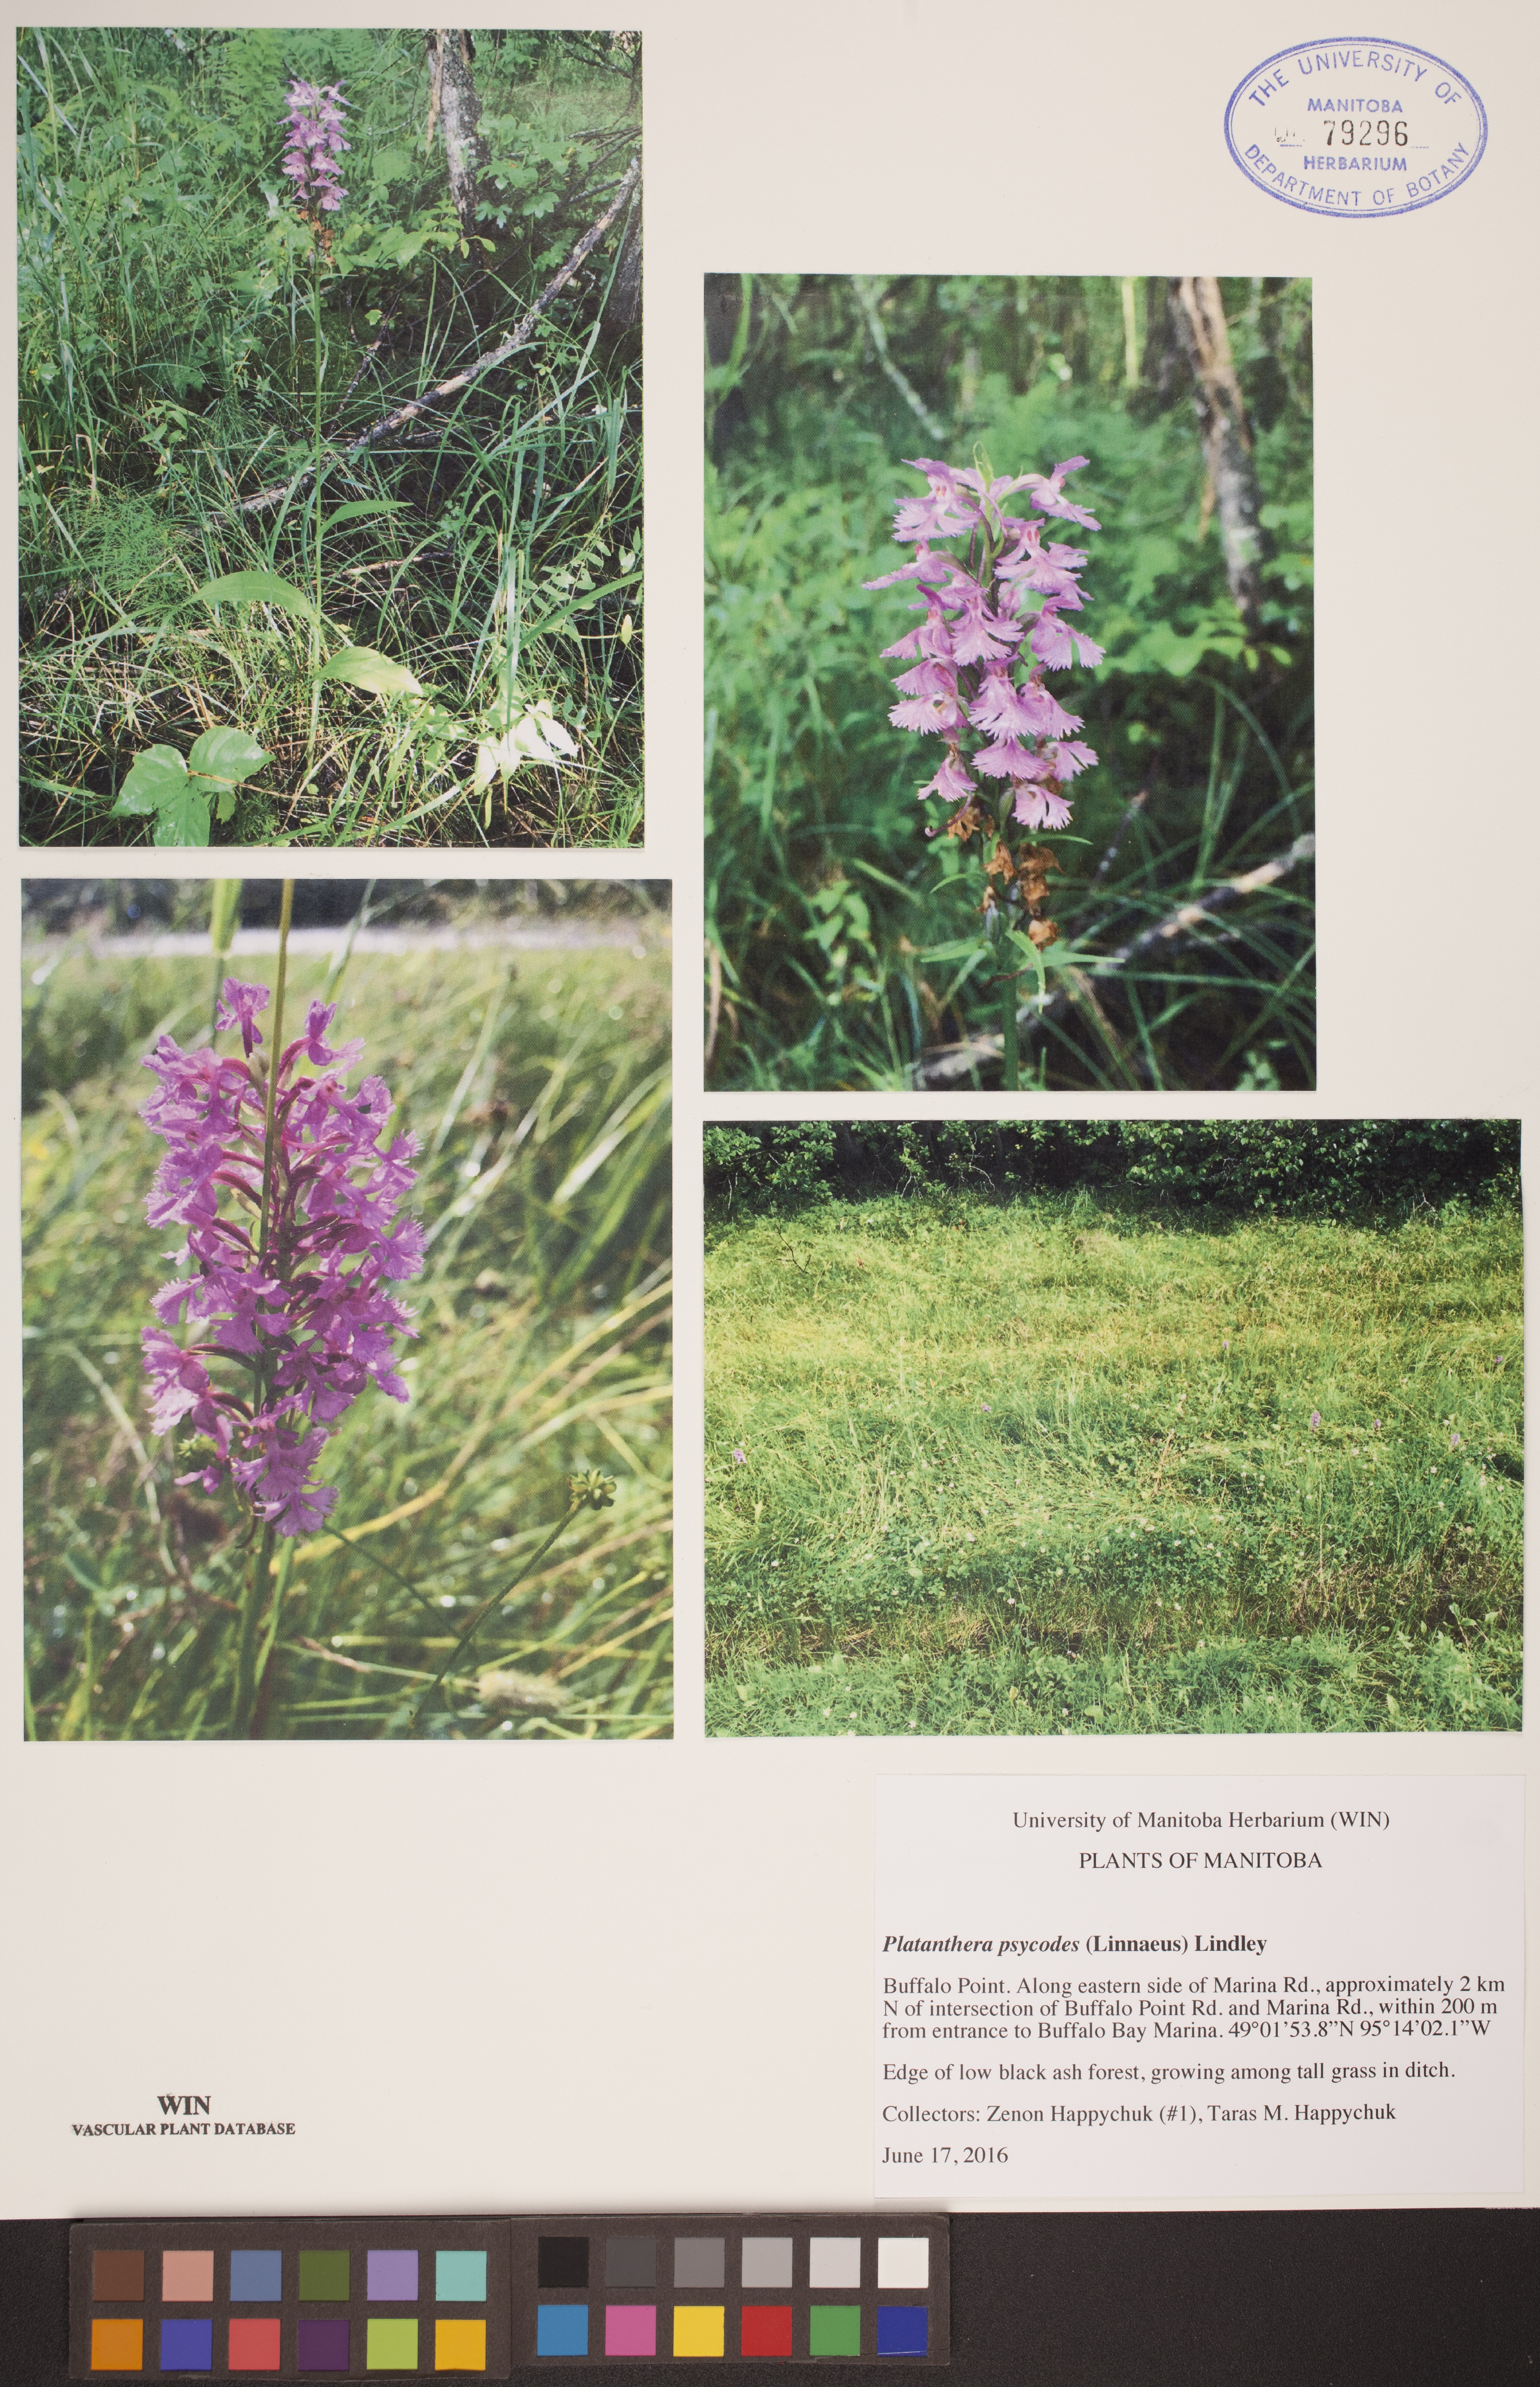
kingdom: Plantae
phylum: Tracheophyta
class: Liliopsida
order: Asparagales
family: Orchidaceae
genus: Platanthera
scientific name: Platanthera psycodes
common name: Lesser purple fringed orchid
